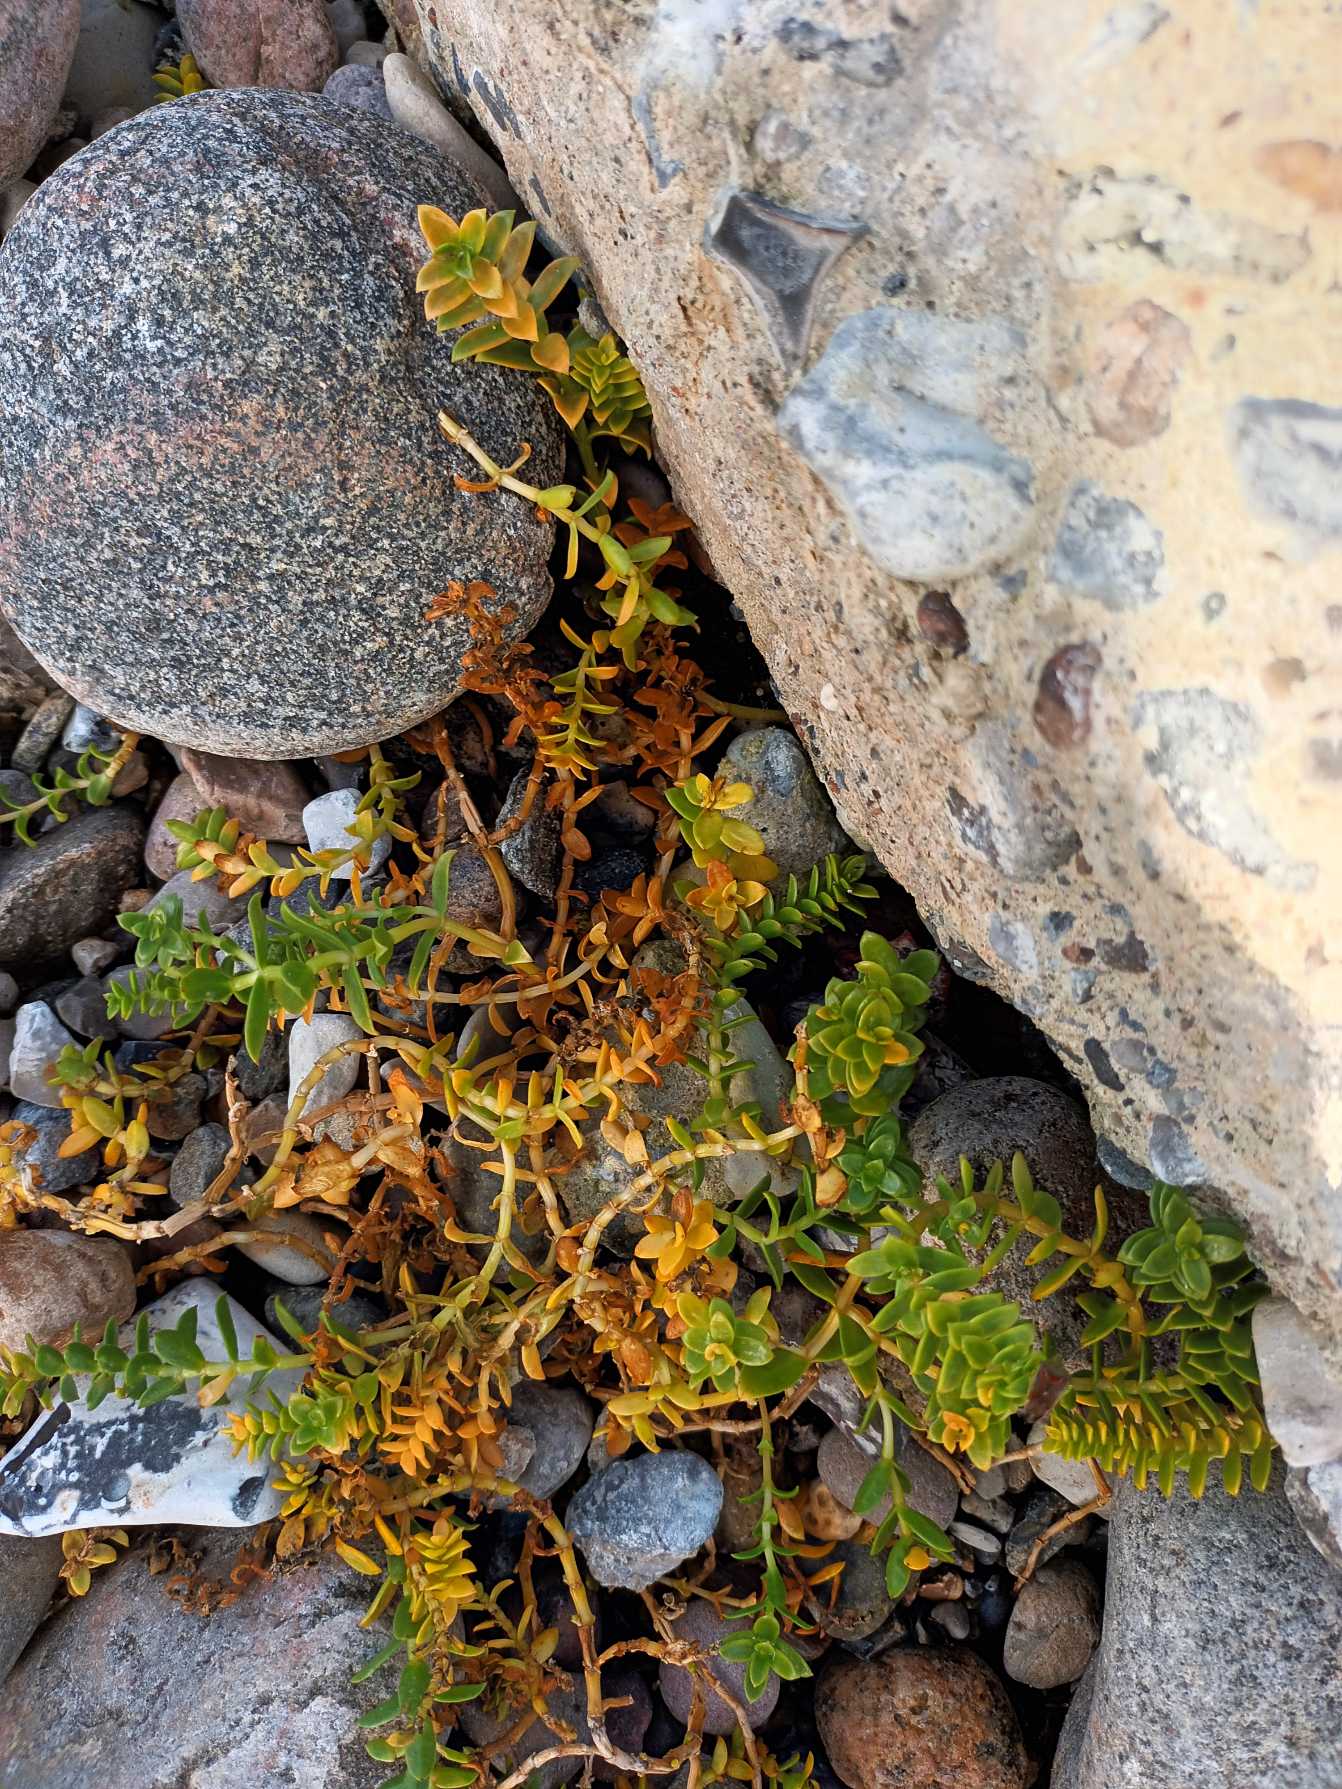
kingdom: Plantae
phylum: Tracheophyta
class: Magnoliopsida
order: Caryophyllales
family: Caryophyllaceae
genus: Honckenya
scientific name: Honckenya peploides
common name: Strandarve
